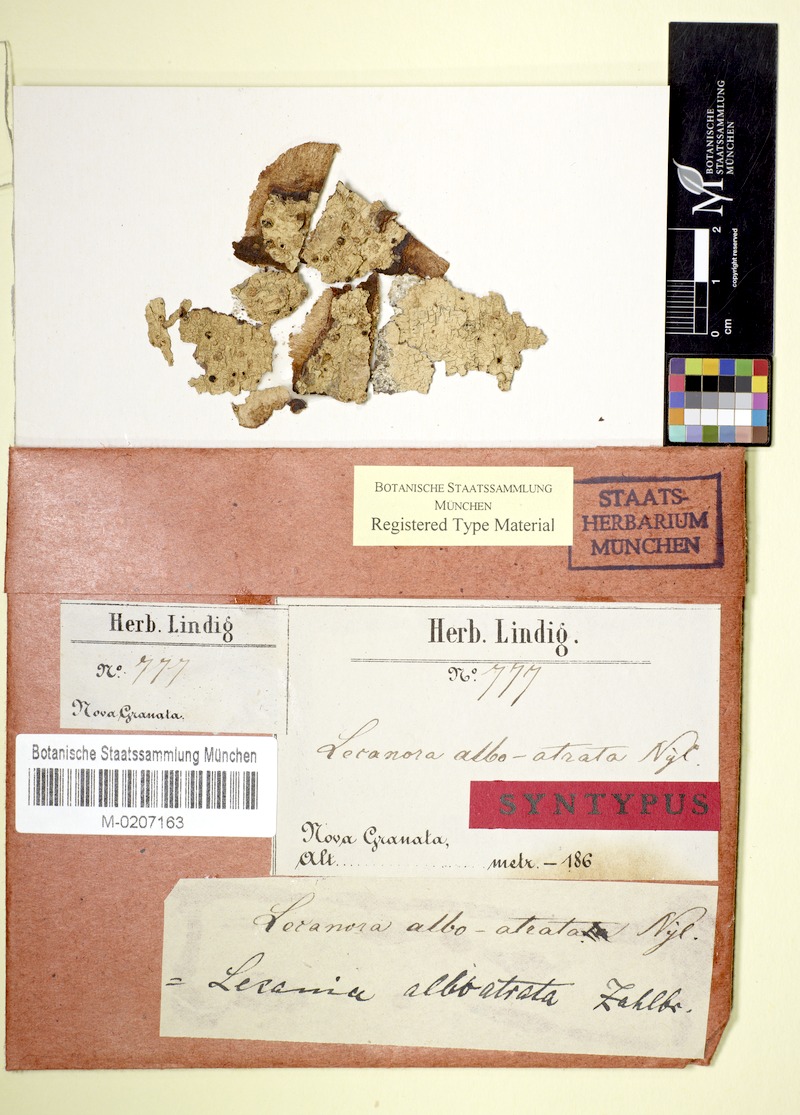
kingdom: Fungi
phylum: Ascomycota
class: Lecanoromycetes
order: Lecanorales
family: Ramalinaceae
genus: Lecania
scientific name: Lecania
